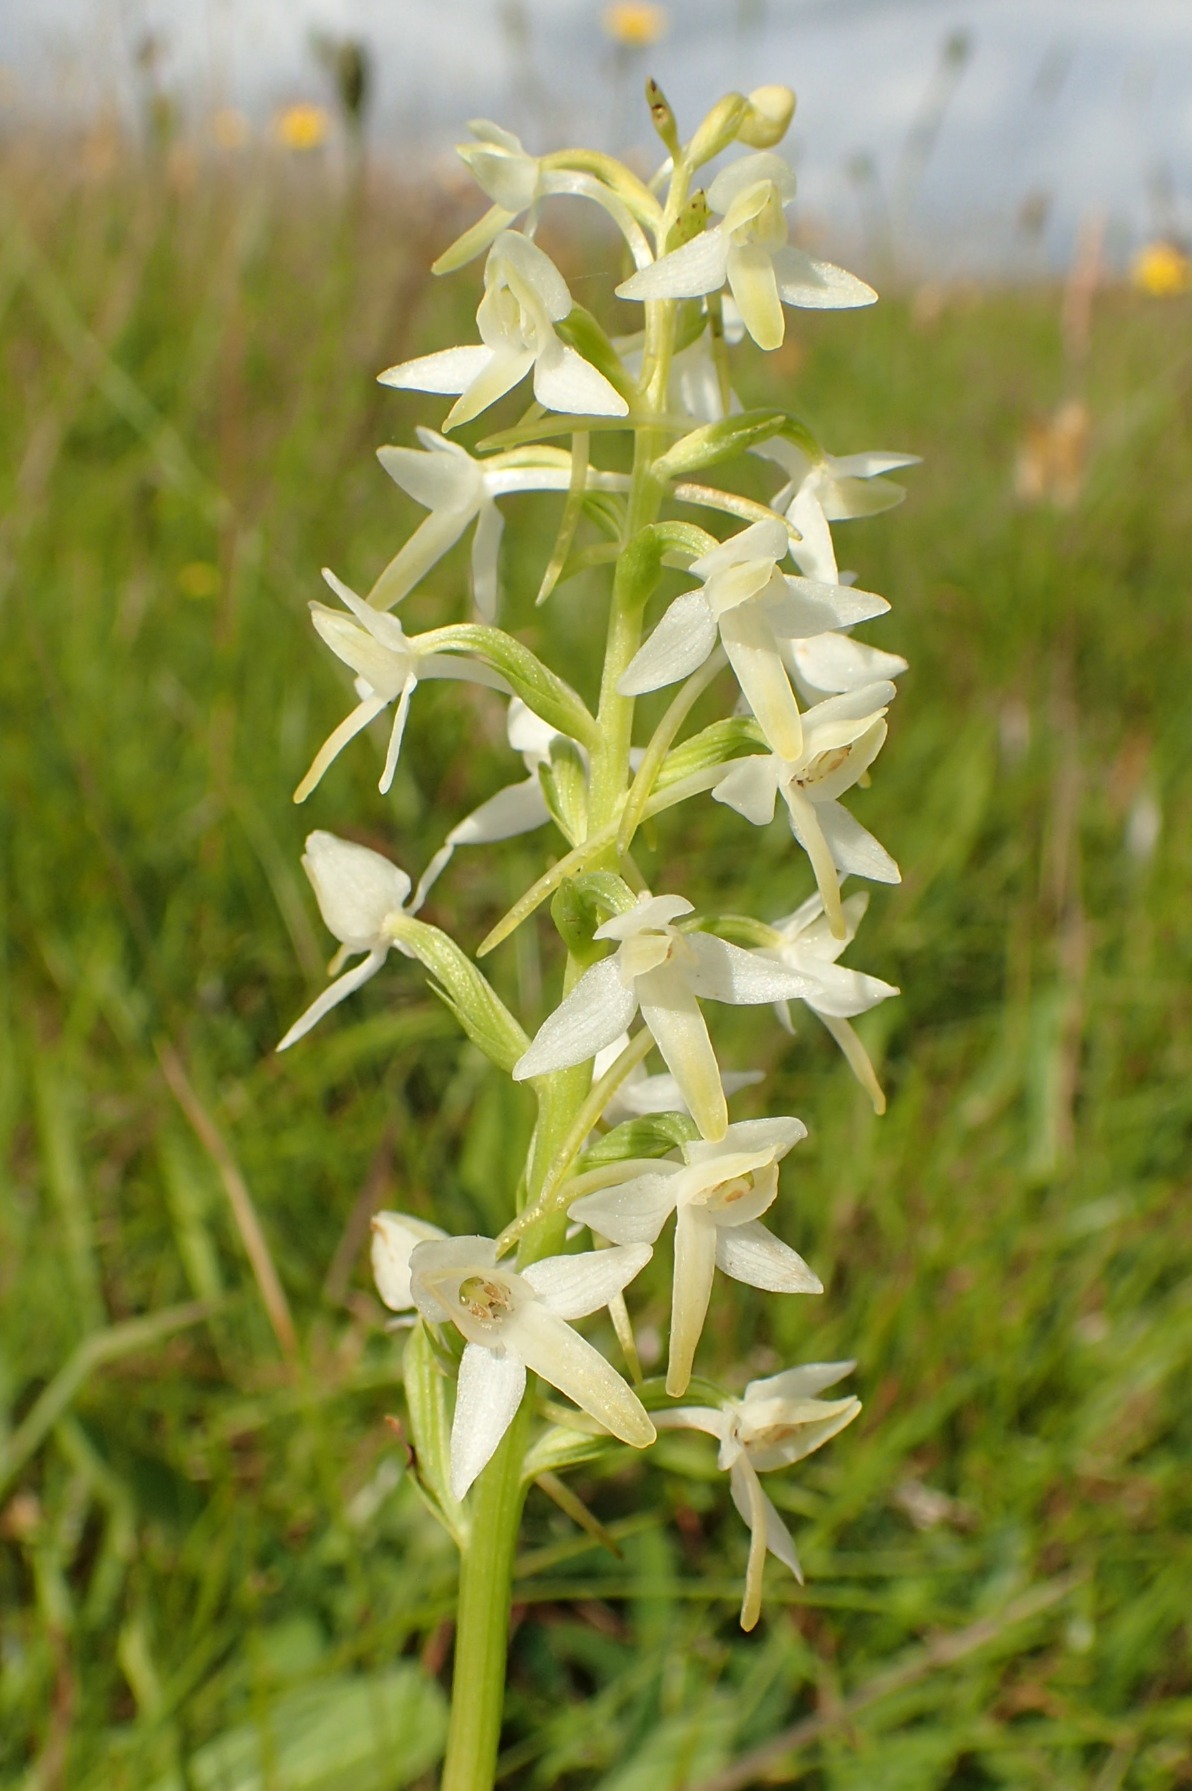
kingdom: Plantae
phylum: Tracheophyta
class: Liliopsida
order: Asparagales
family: Orchidaceae
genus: Platanthera
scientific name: Platanthera bifolia
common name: Bakke-gøgelilje
